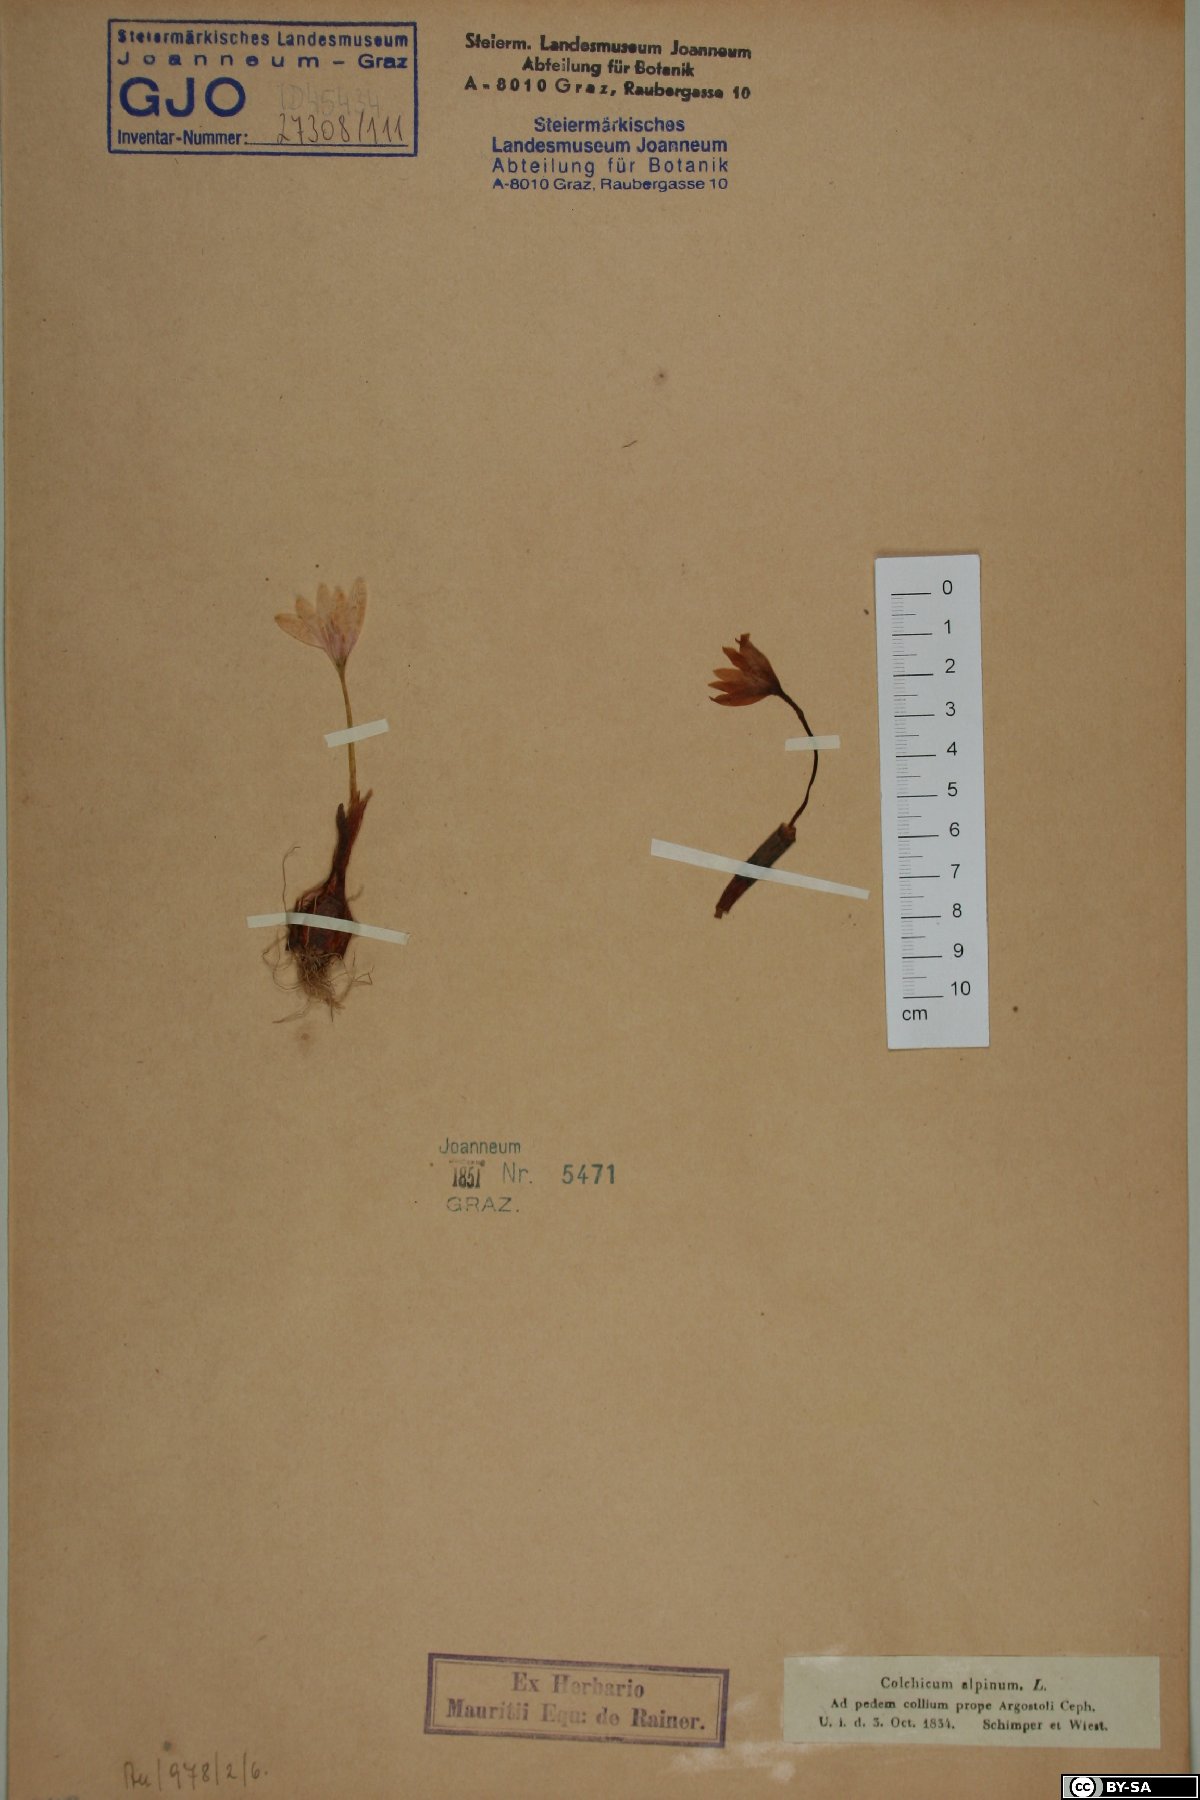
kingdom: Plantae
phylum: Tracheophyta
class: Liliopsida
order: Liliales
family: Colchicaceae
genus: Colchicum
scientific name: Colchicum alpinum
